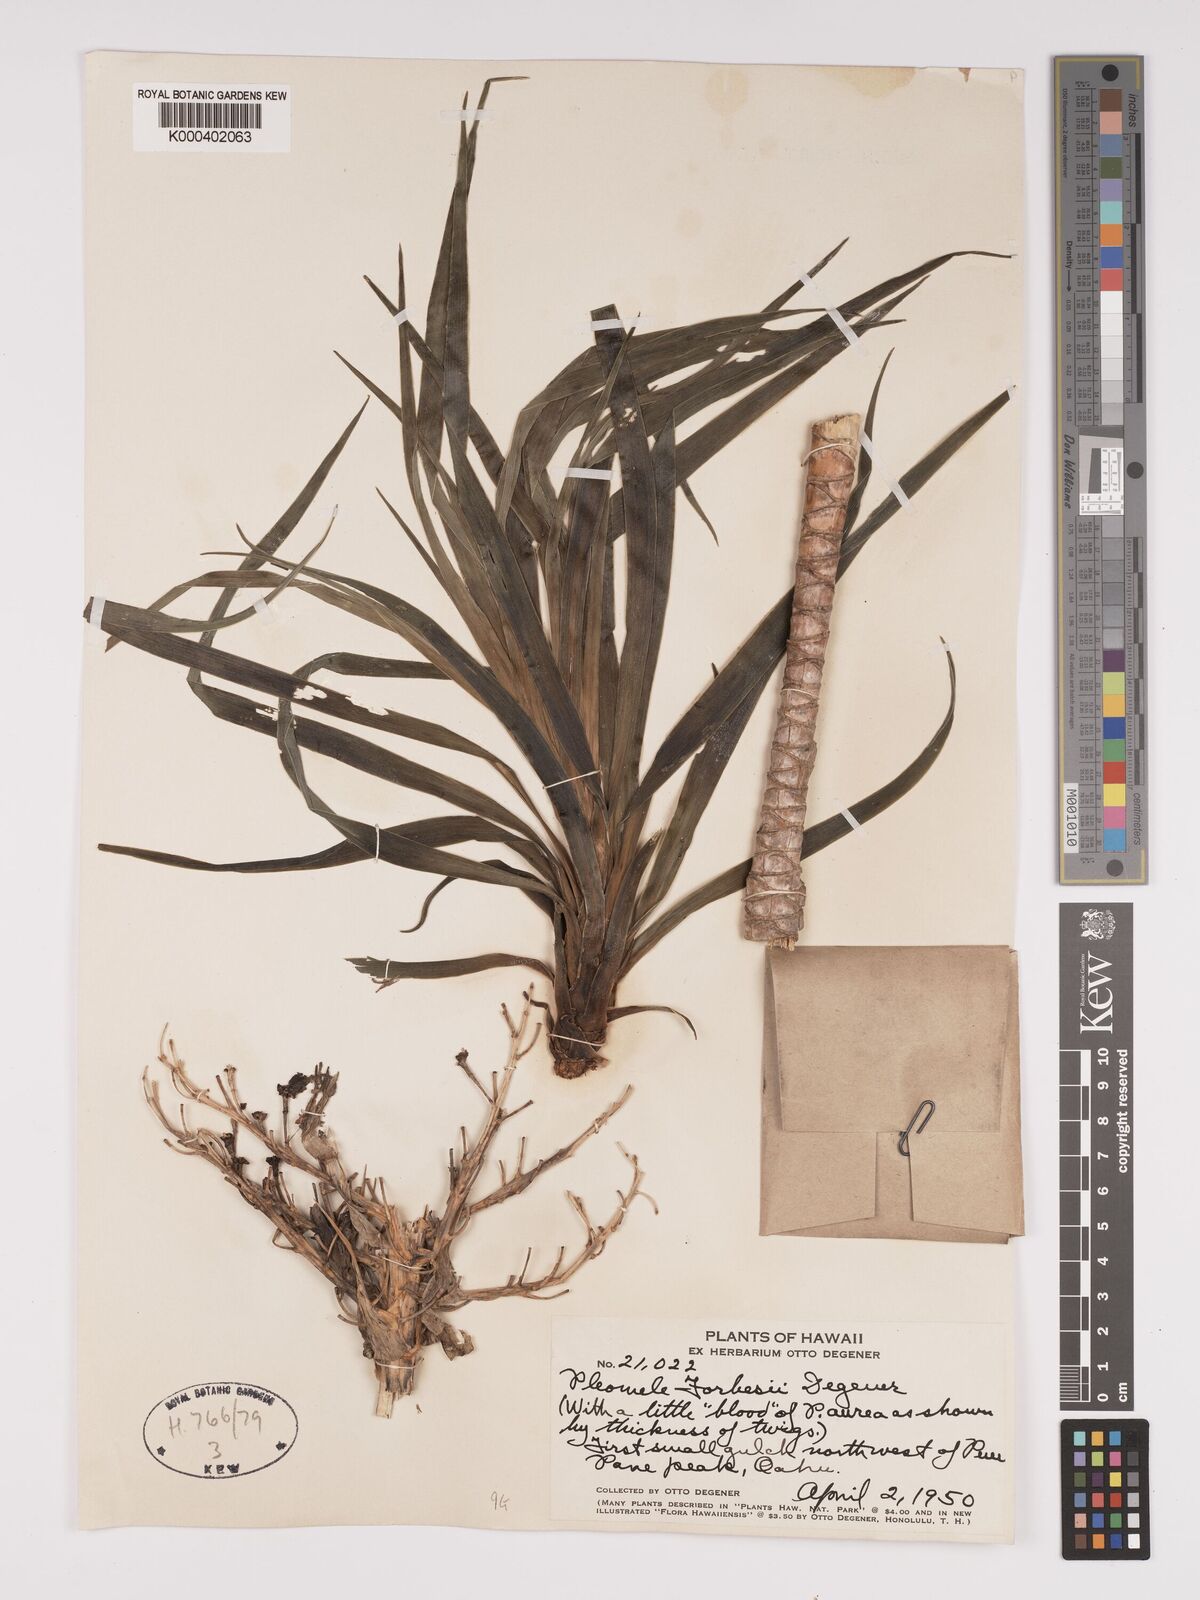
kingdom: Plantae
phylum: Tracheophyta
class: Liliopsida
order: Asparagales
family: Asparagaceae
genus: Dracaena
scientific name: Dracaena forbesii
